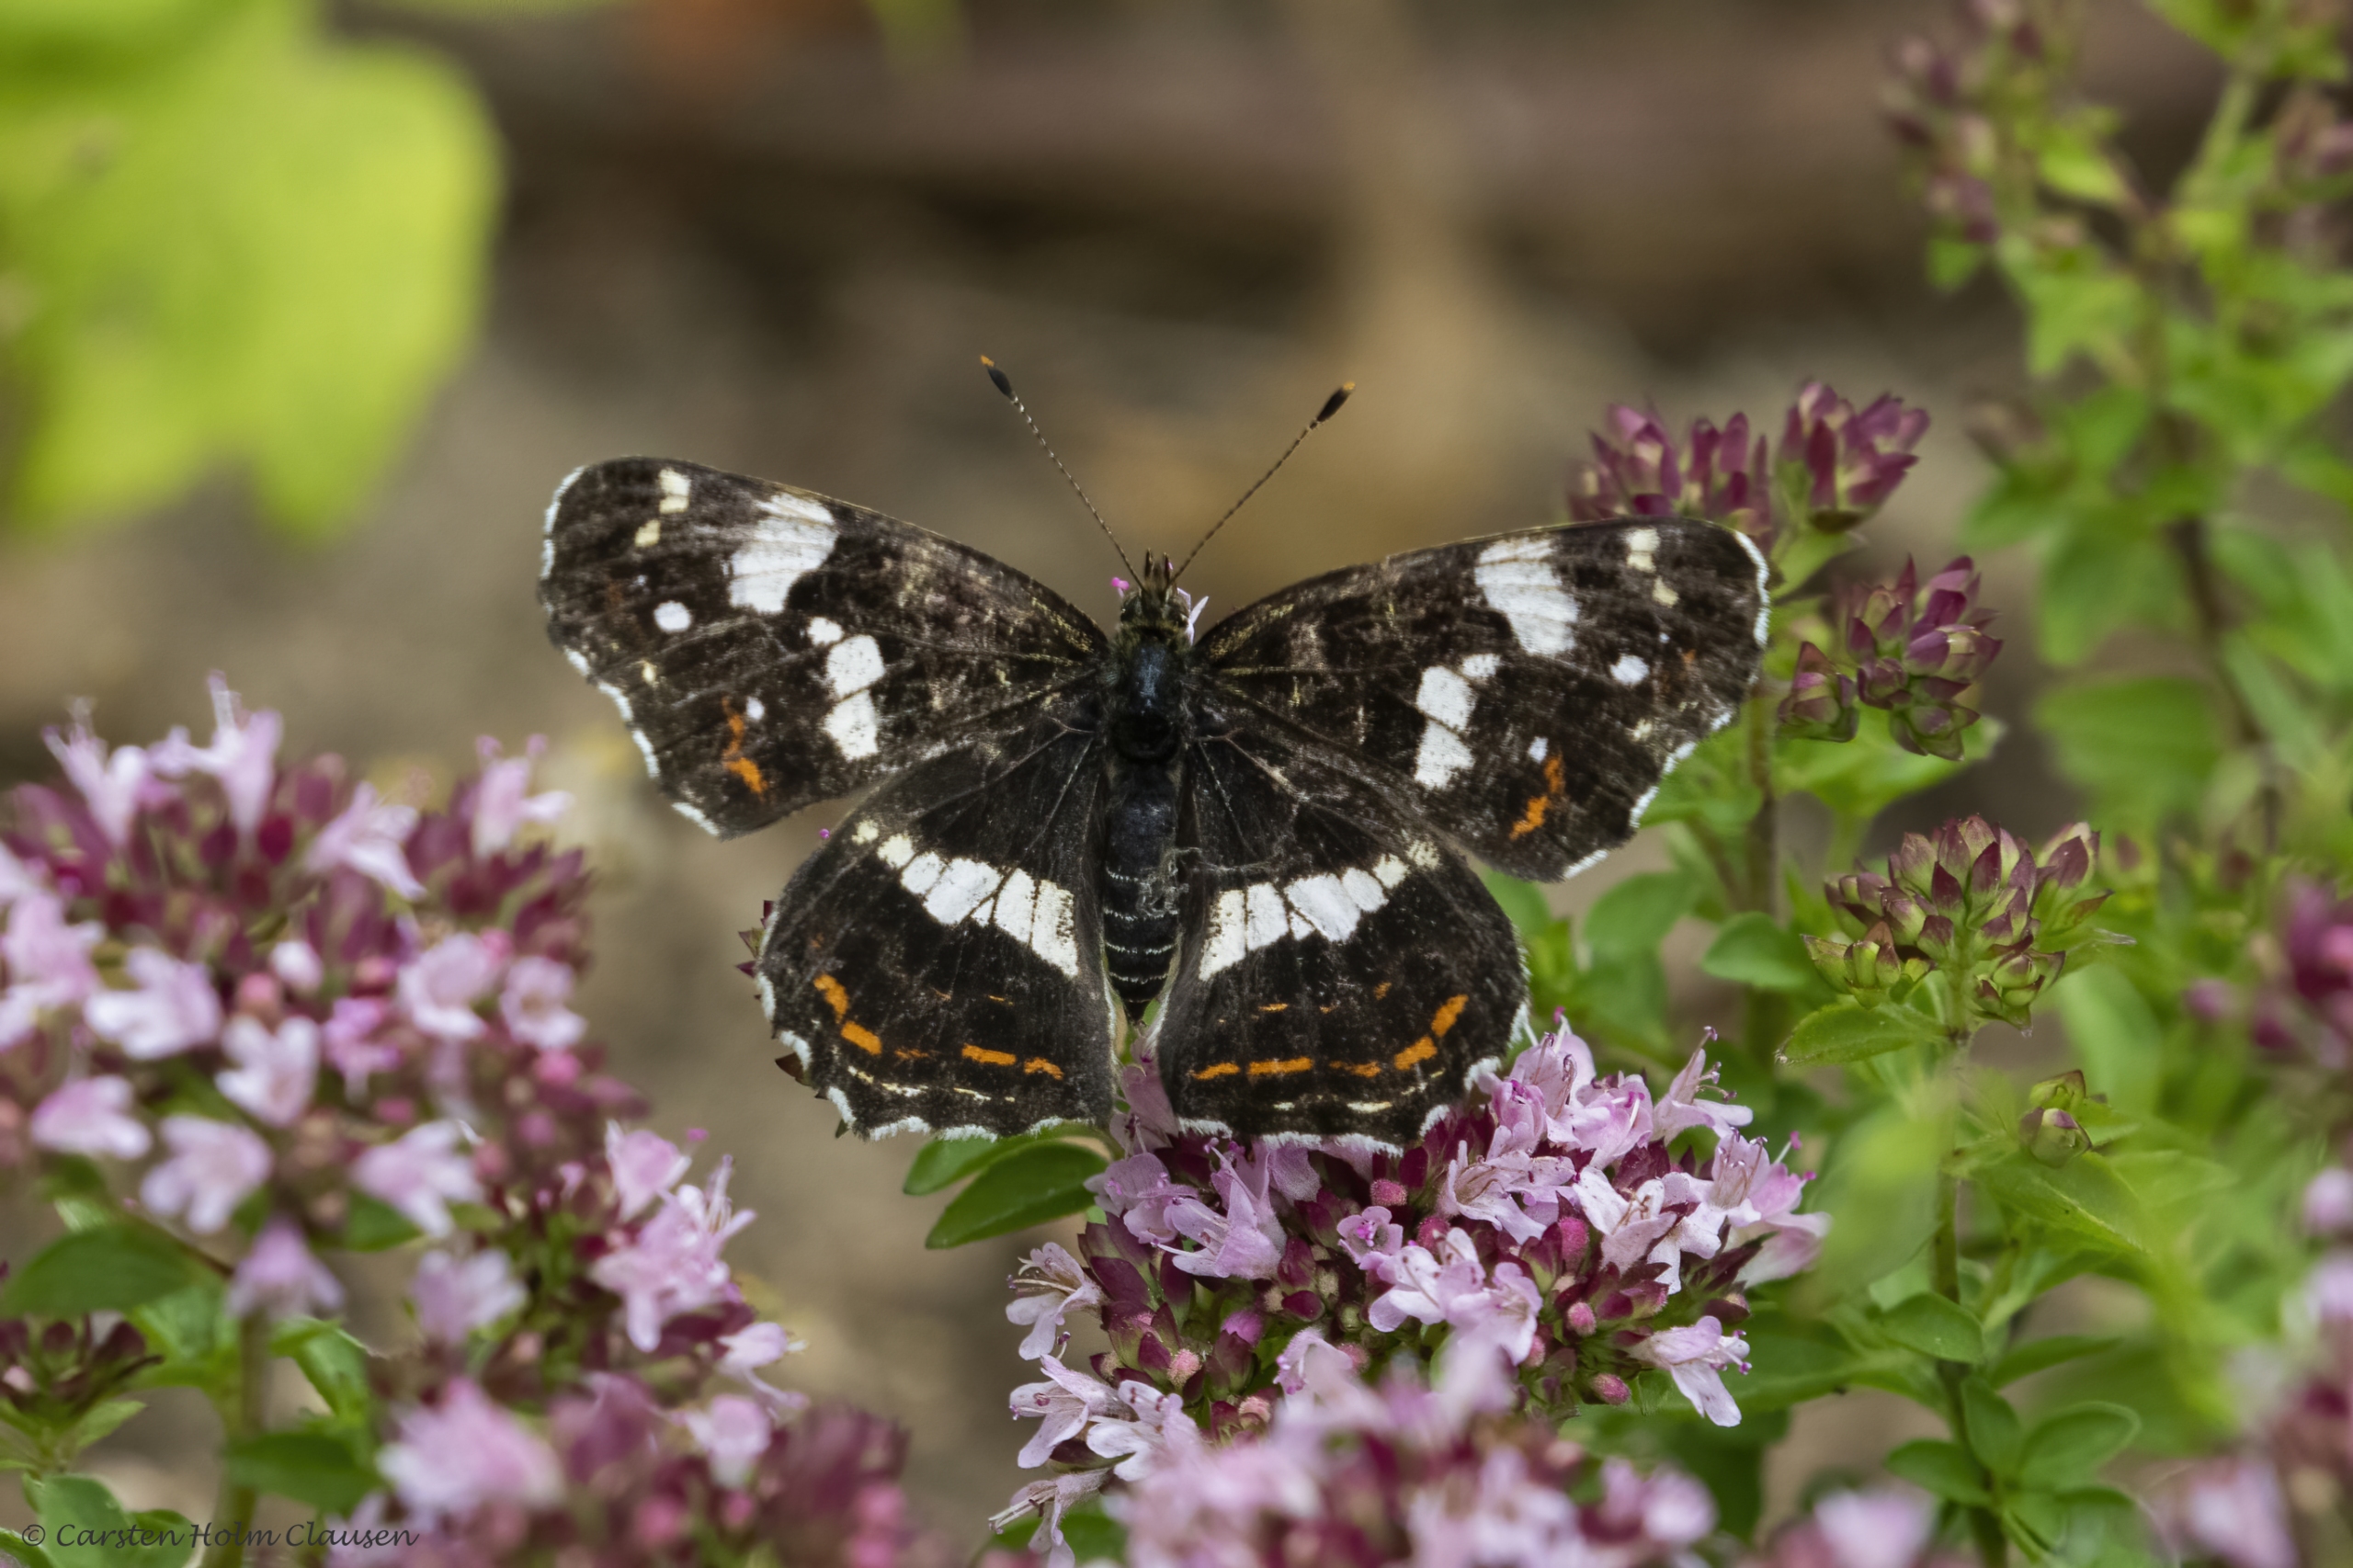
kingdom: Animalia
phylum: Arthropoda
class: Insecta
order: Lepidoptera
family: Nymphalidae
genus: Araschnia
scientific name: Araschnia levana
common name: Nældesommerfugl
